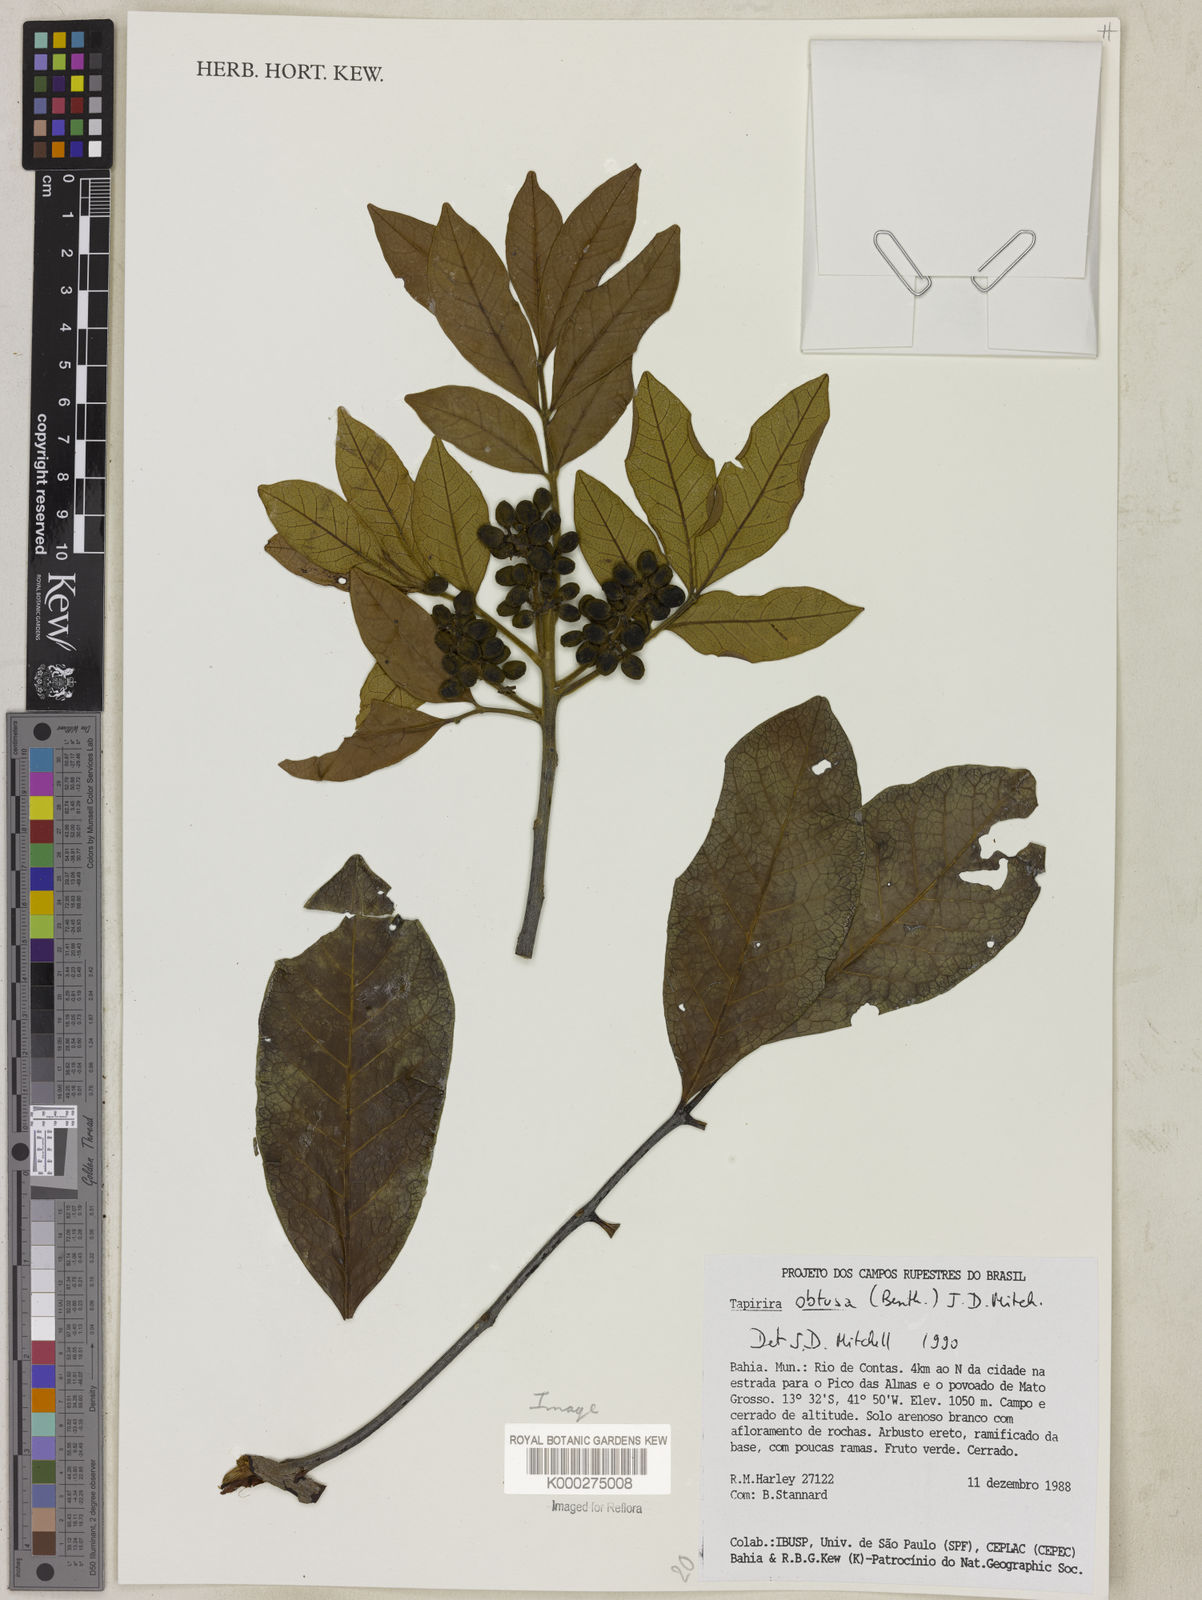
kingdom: Plantae
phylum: Tracheophyta
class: Magnoliopsida
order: Sapindales
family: Anacardiaceae
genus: Tapirira
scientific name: Tapirira obtusa
